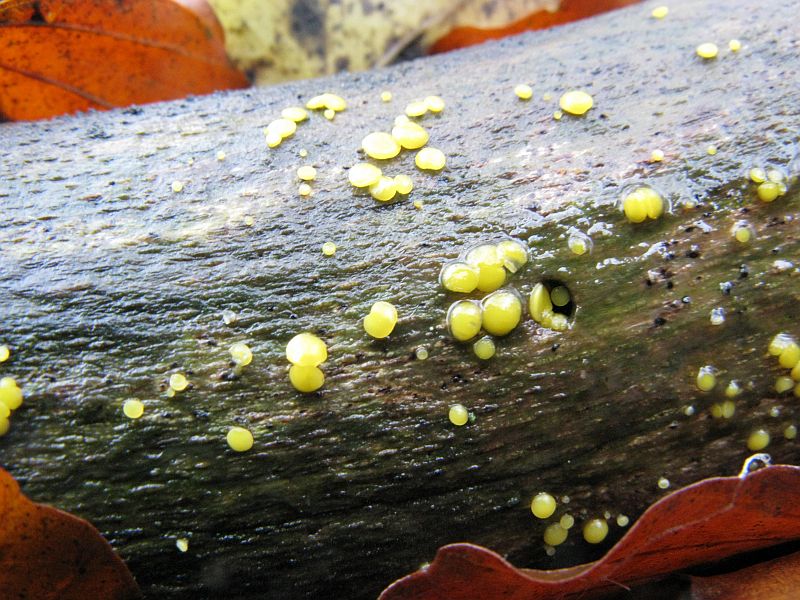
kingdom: Fungi
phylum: Ascomycota
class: Leotiomycetes
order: Helotiales
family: Pezizellaceae
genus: Calycina
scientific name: Calycina citrina
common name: almindelig gulskive
